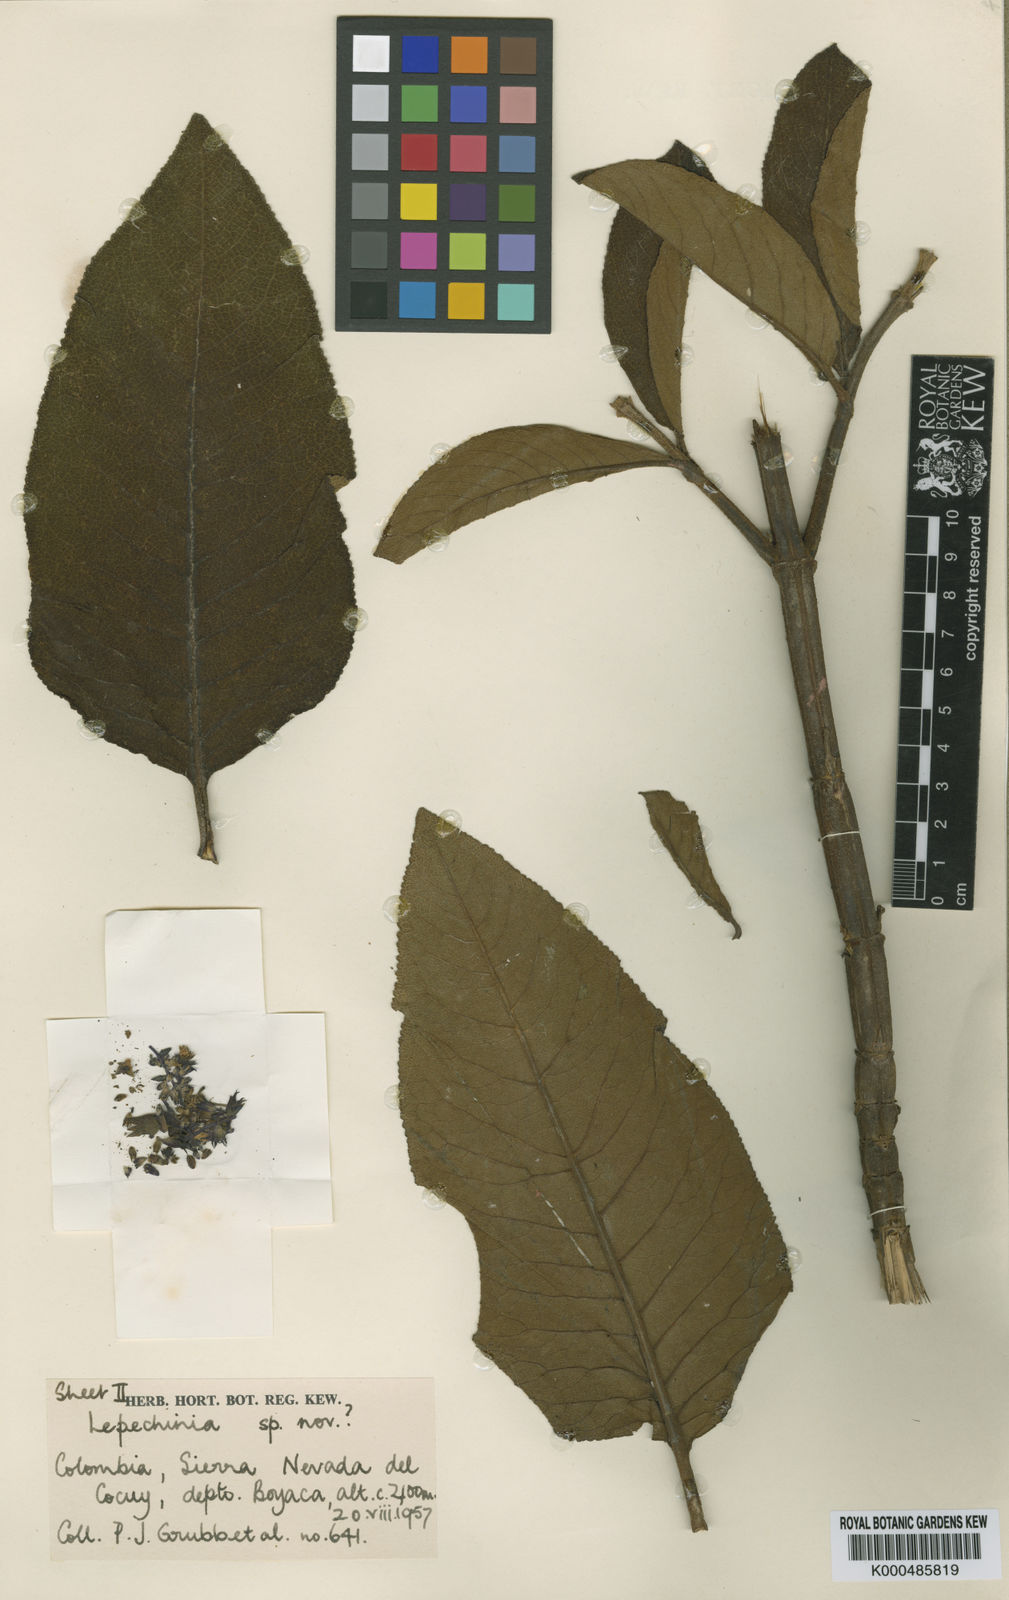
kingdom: Plantae
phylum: Tracheophyta
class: Magnoliopsida
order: Lamiales
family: Lamiaceae
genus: Lepechinia
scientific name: Lepechinia cocuyensis
